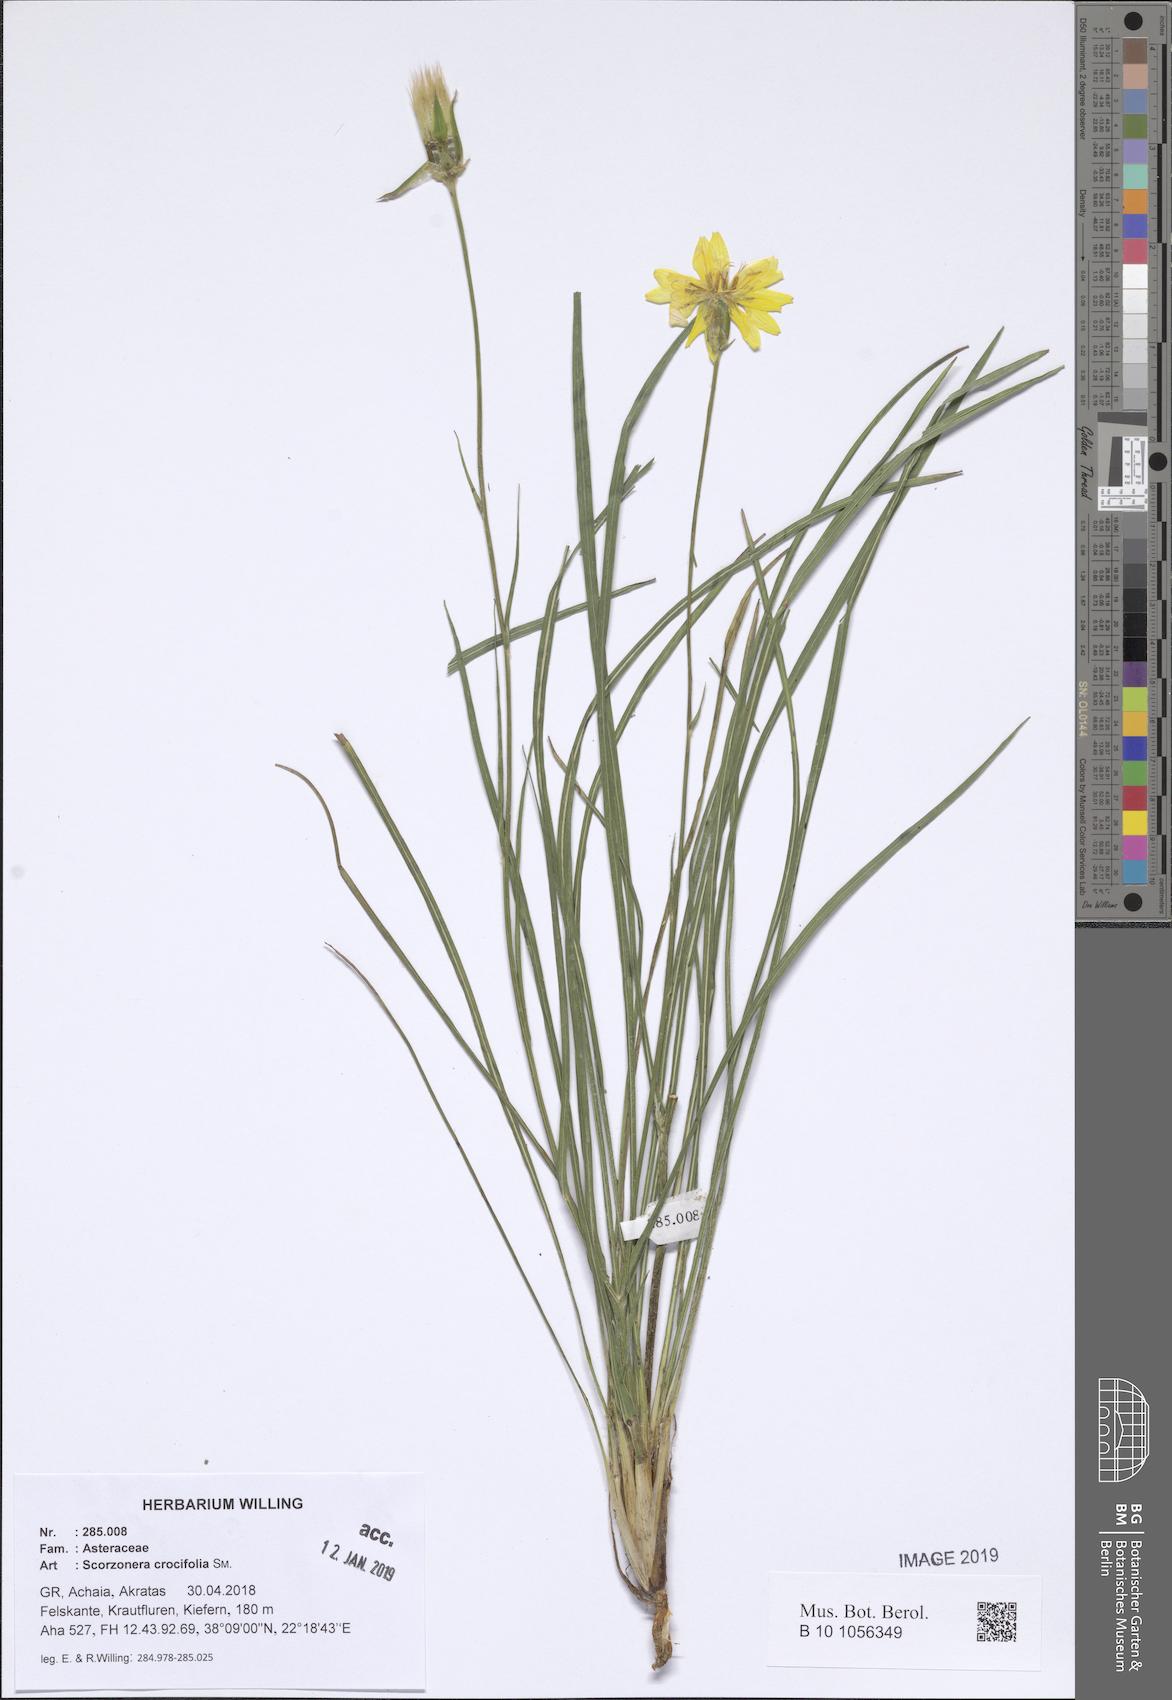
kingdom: Plantae
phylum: Tracheophyta
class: Magnoliopsida
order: Asterales
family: Asteraceae
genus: Pseudopodospermum
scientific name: Pseudopodospermum crocifolium
